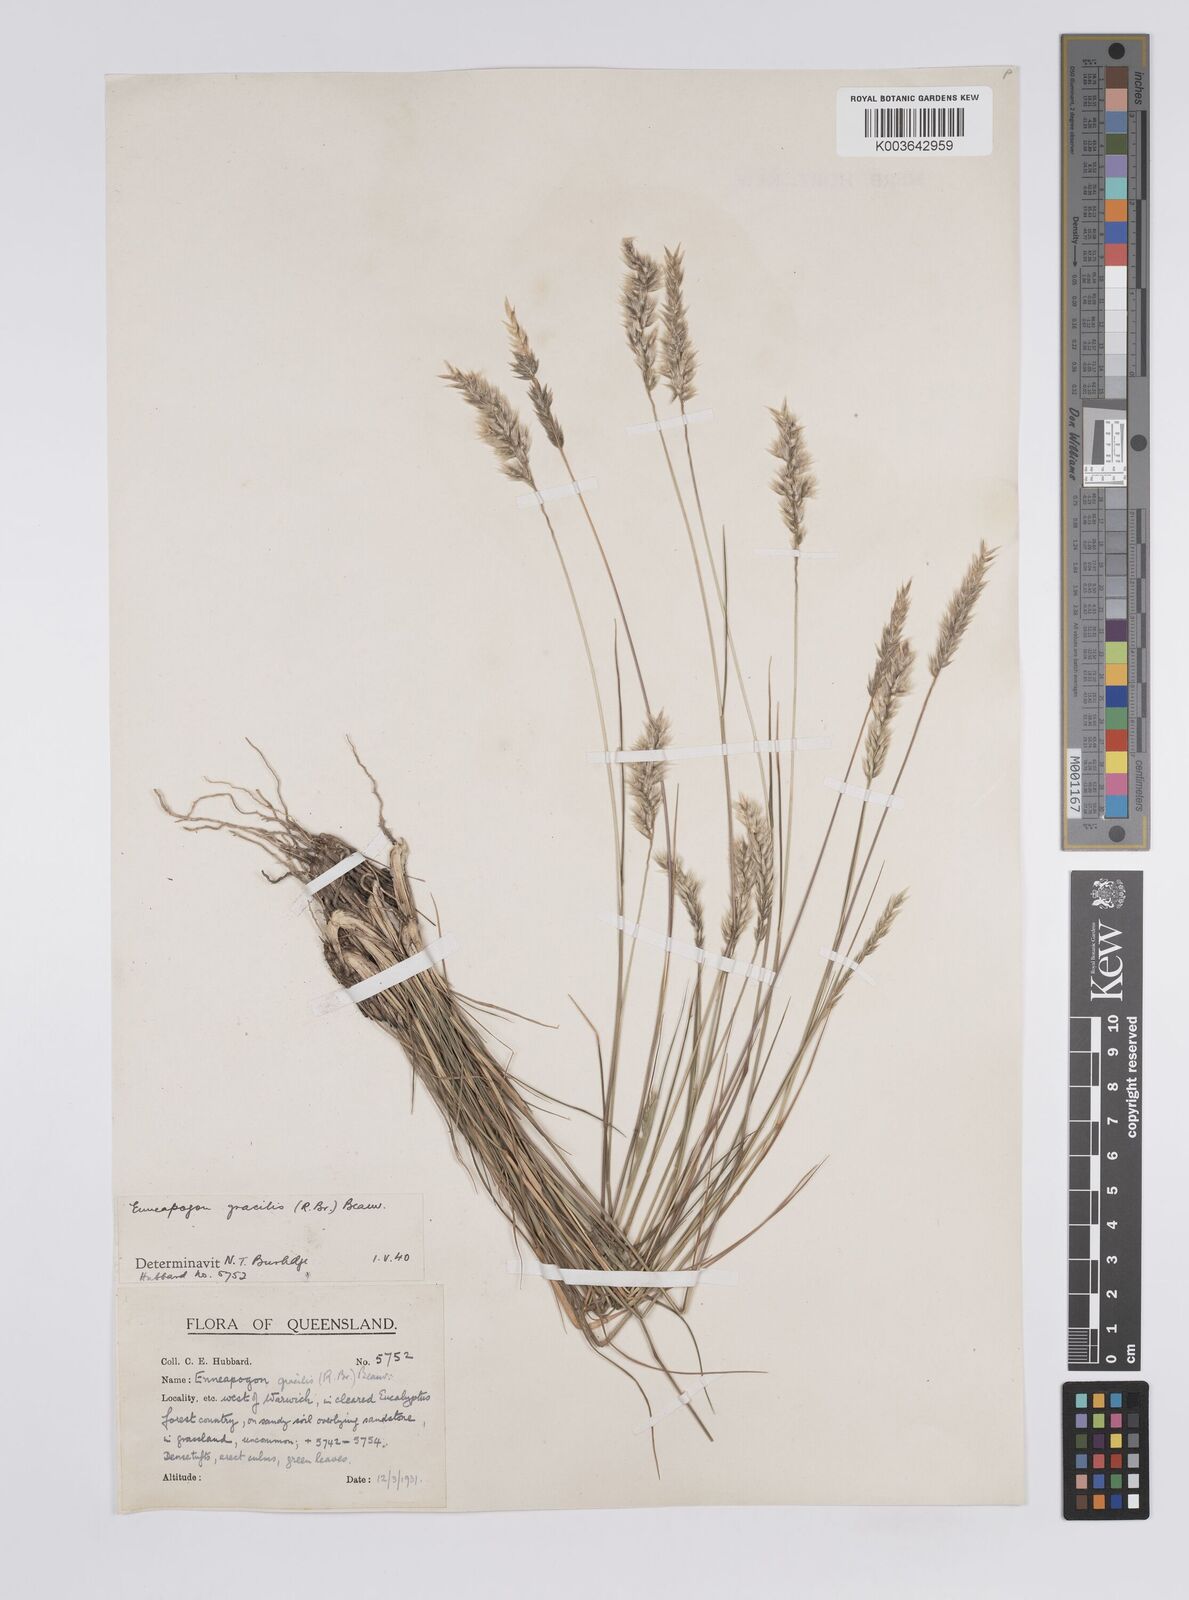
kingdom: Plantae
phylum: Tracheophyta
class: Liliopsida
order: Poales
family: Poaceae
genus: Enneapogon
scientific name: Enneapogon gracilis
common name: Slender bottle-washers
